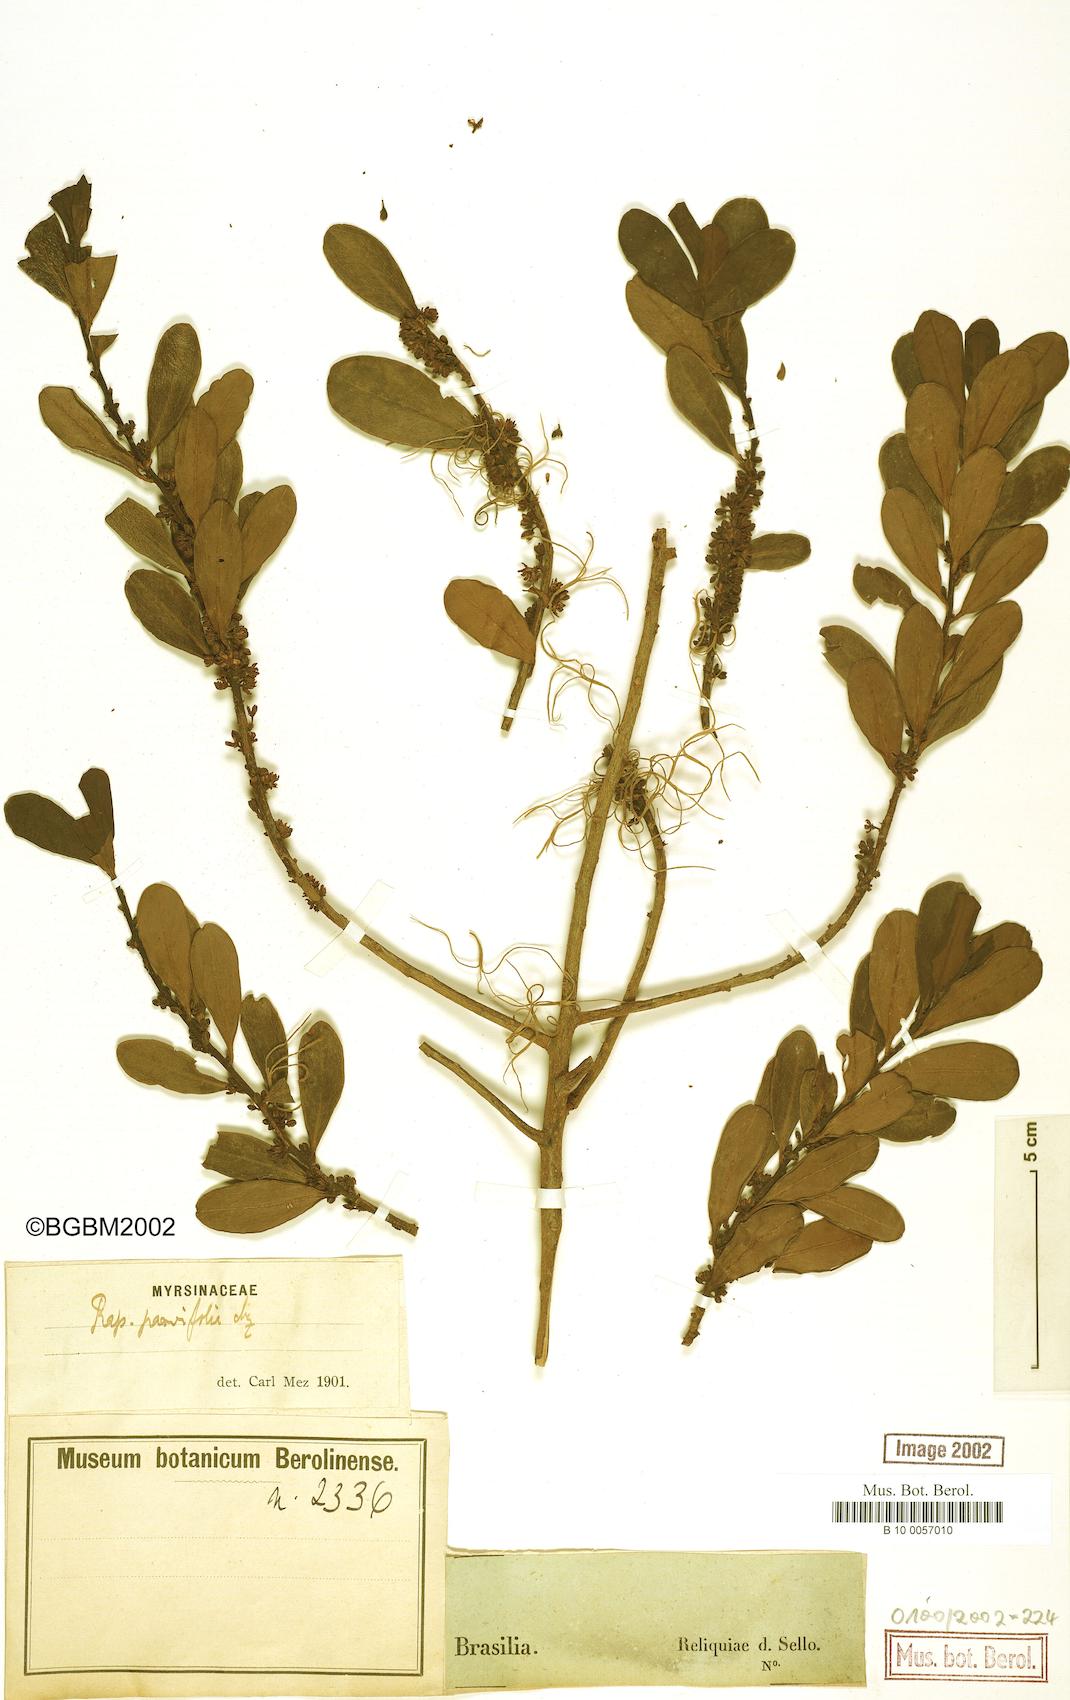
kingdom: Plantae
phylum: Tracheophyta
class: Magnoliopsida
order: Ericales
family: Primulaceae
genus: Myrsine
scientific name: Myrsine parvifolia
